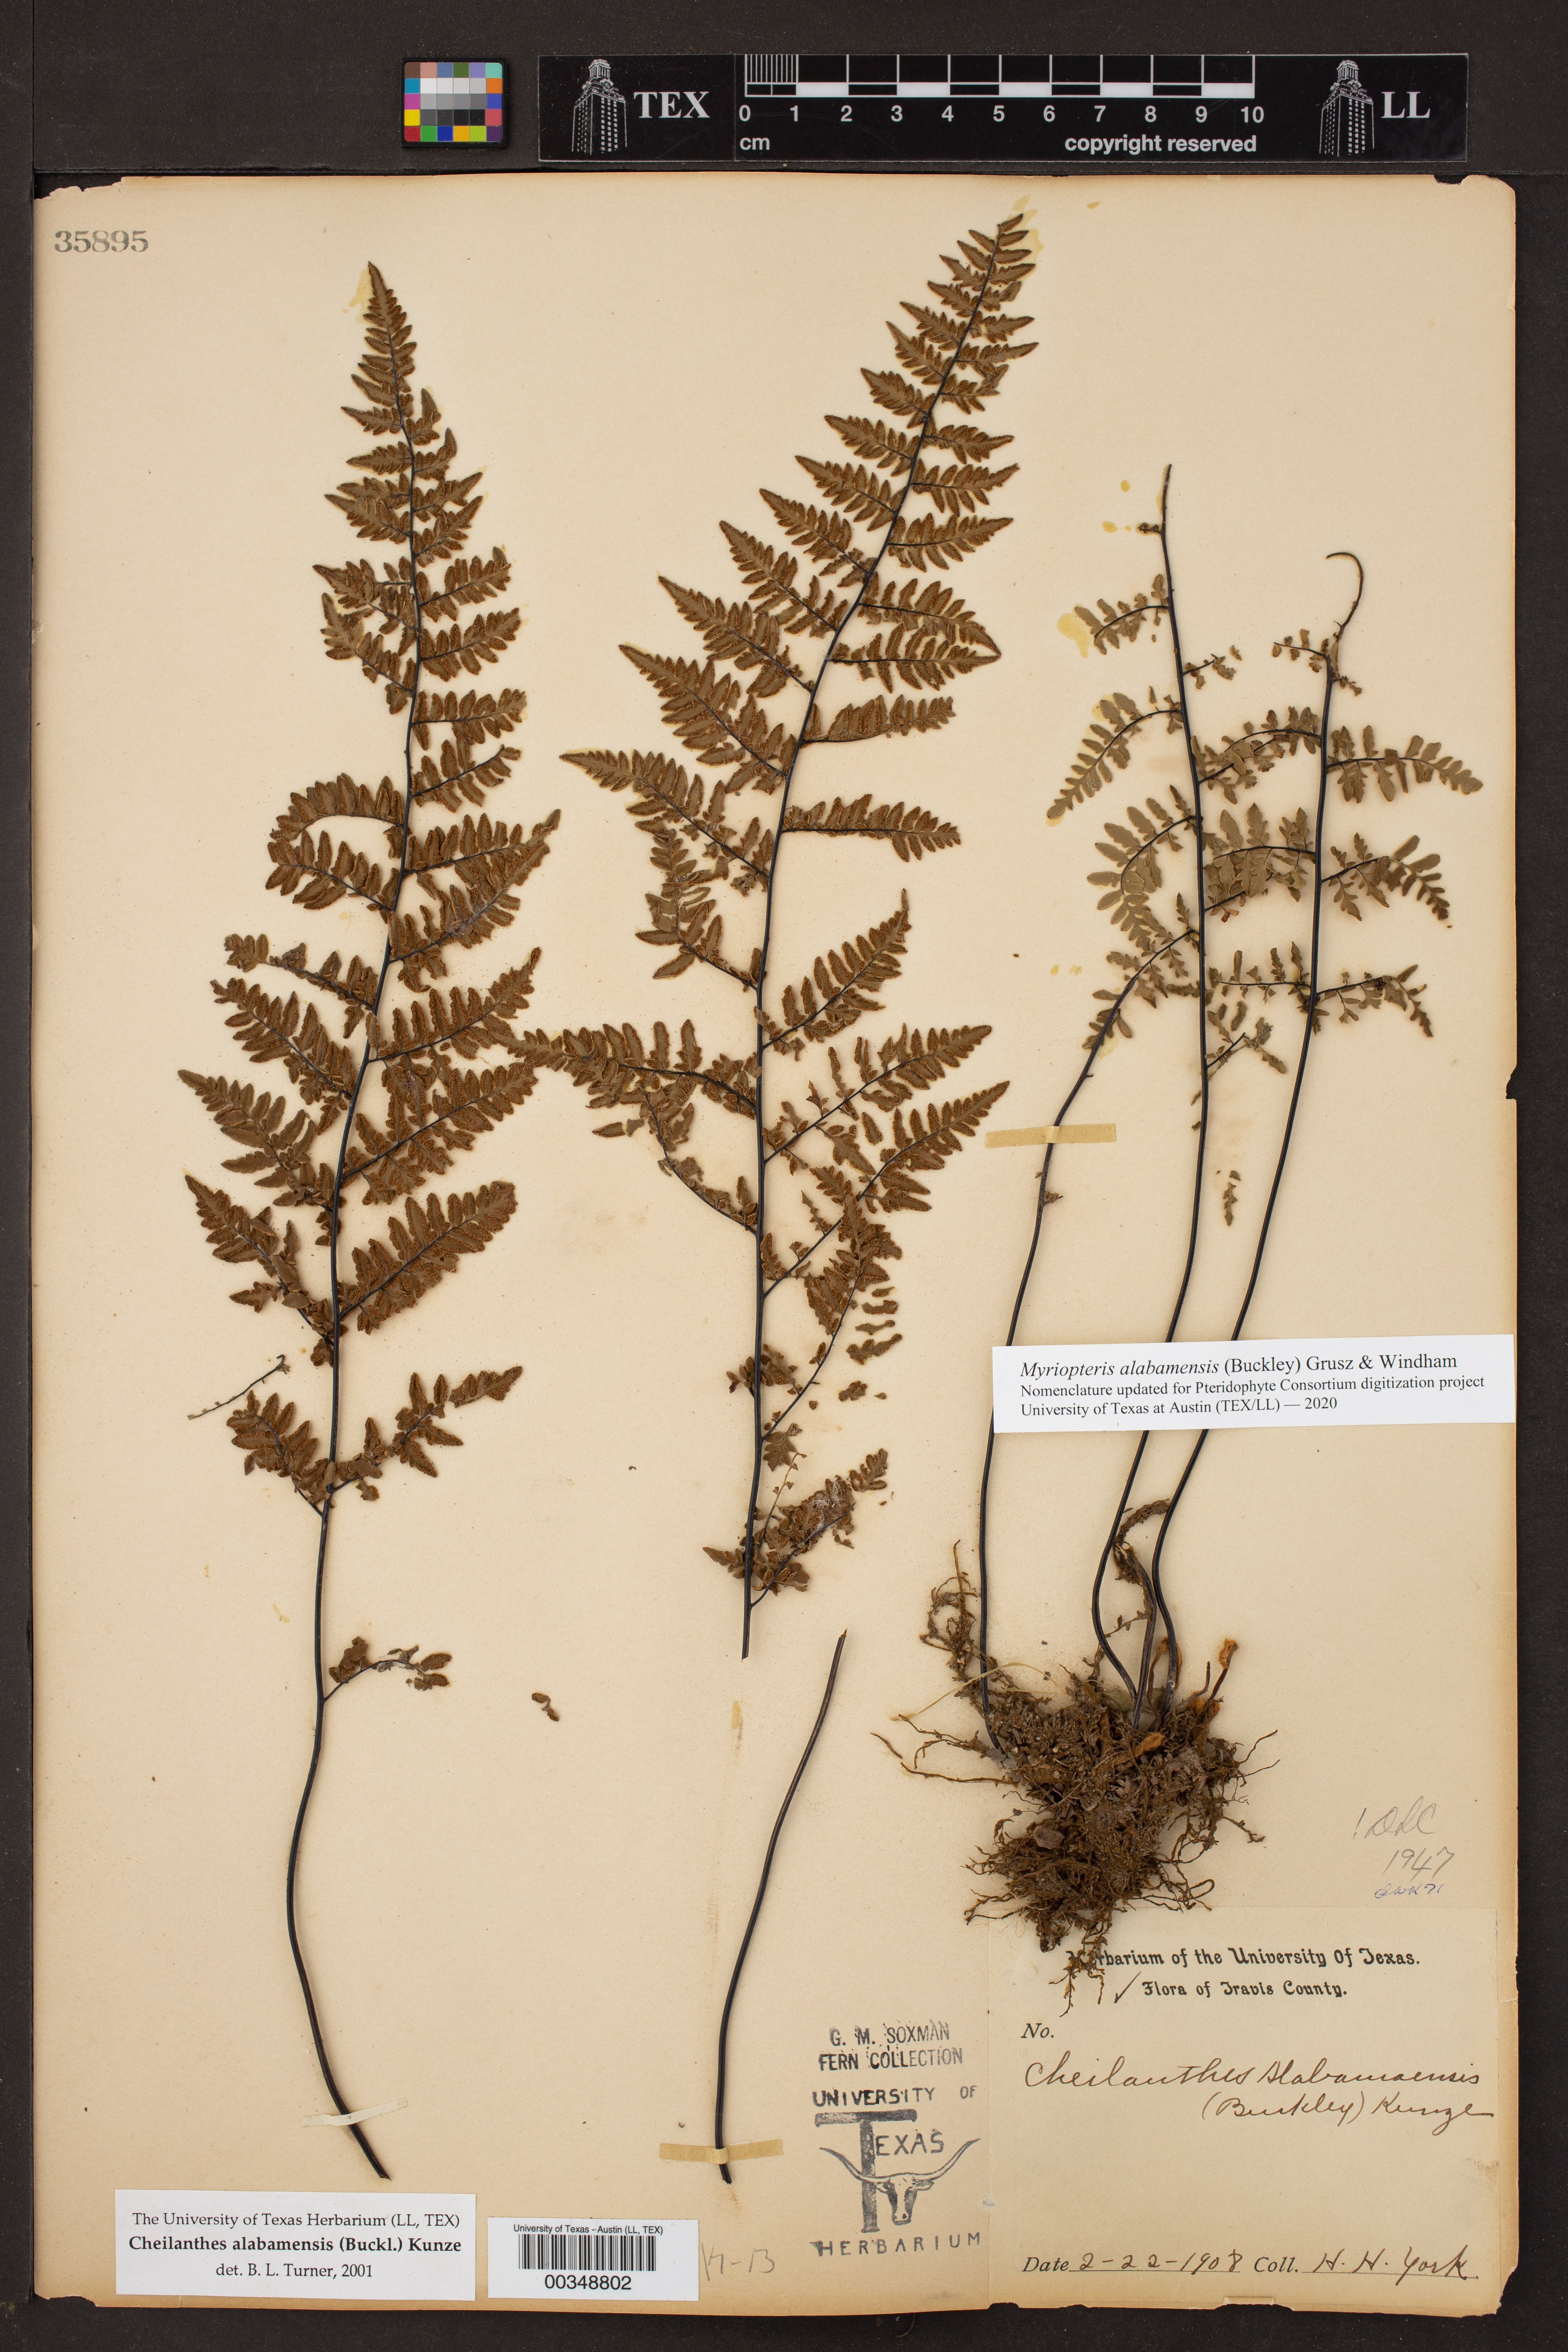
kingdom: Plantae
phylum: Tracheophyta
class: Polypodiopsida
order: Polypodiales
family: Pteridaceae
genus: Myriopteris
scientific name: Myriopteris alabamensis
